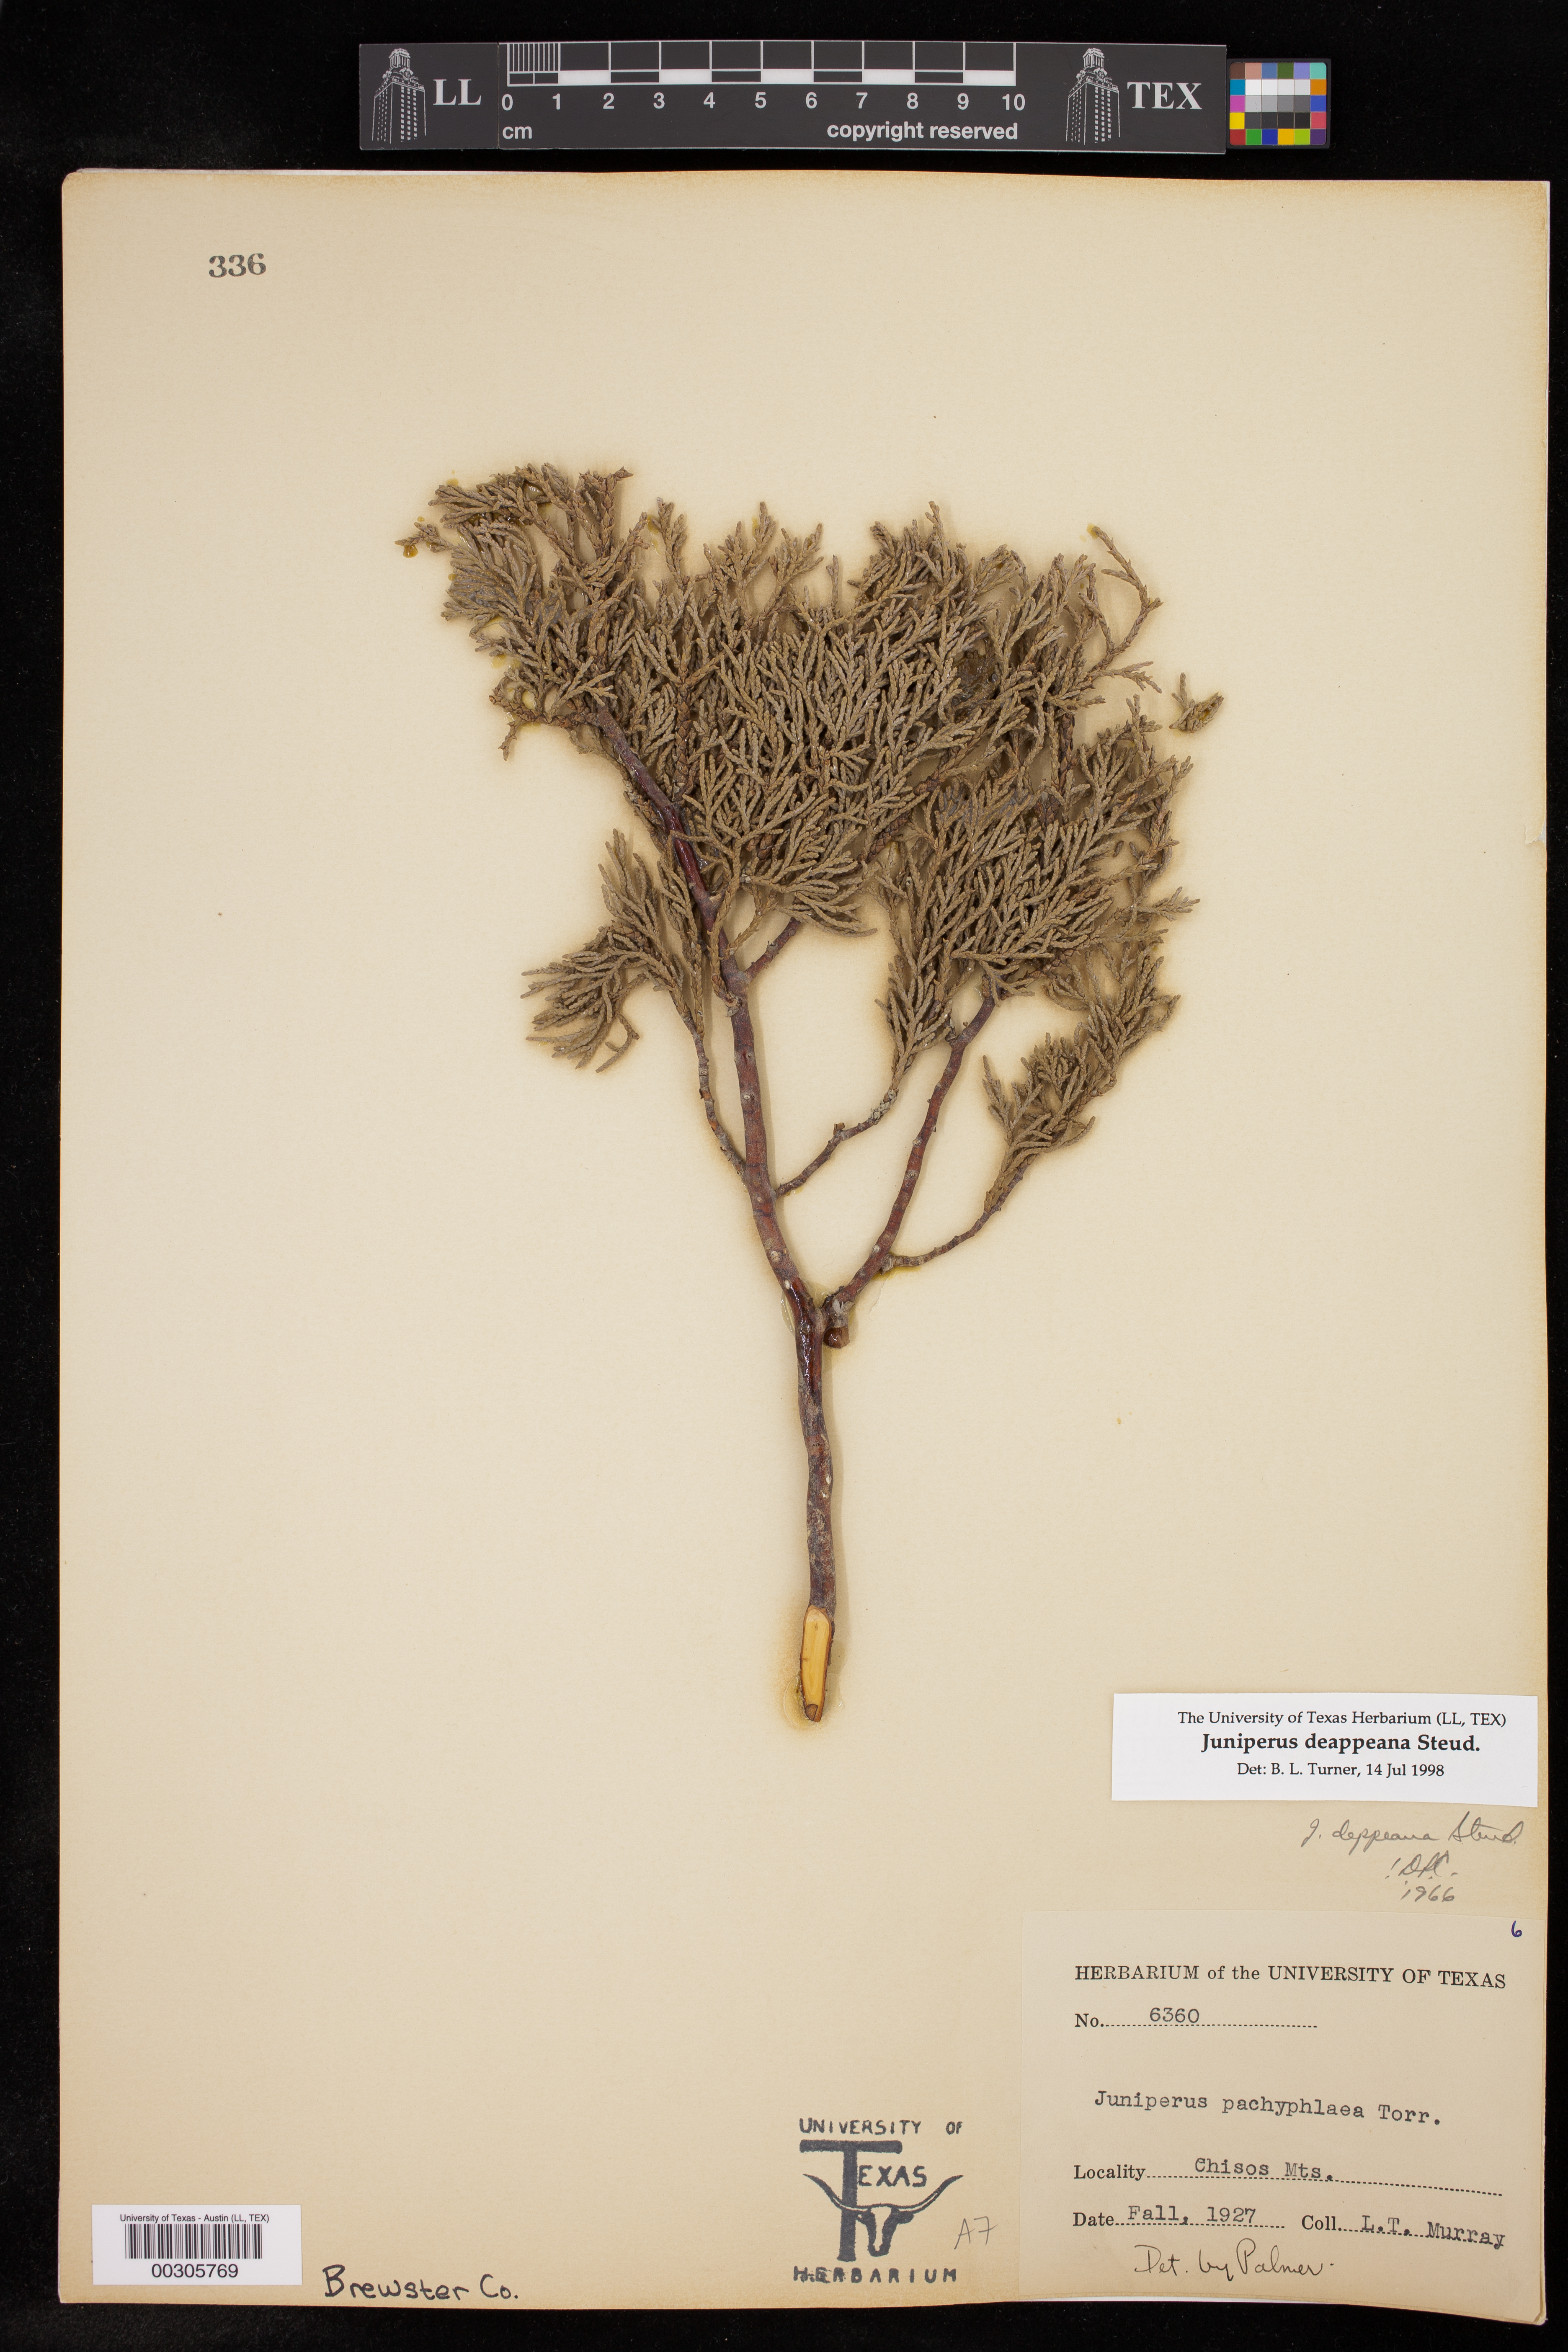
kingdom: Plantae
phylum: Tracheophyta
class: Pinopsida
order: Pinales
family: Cupressaceae
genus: Juniperus
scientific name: Juniperus deppeana
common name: Alligator juniper
